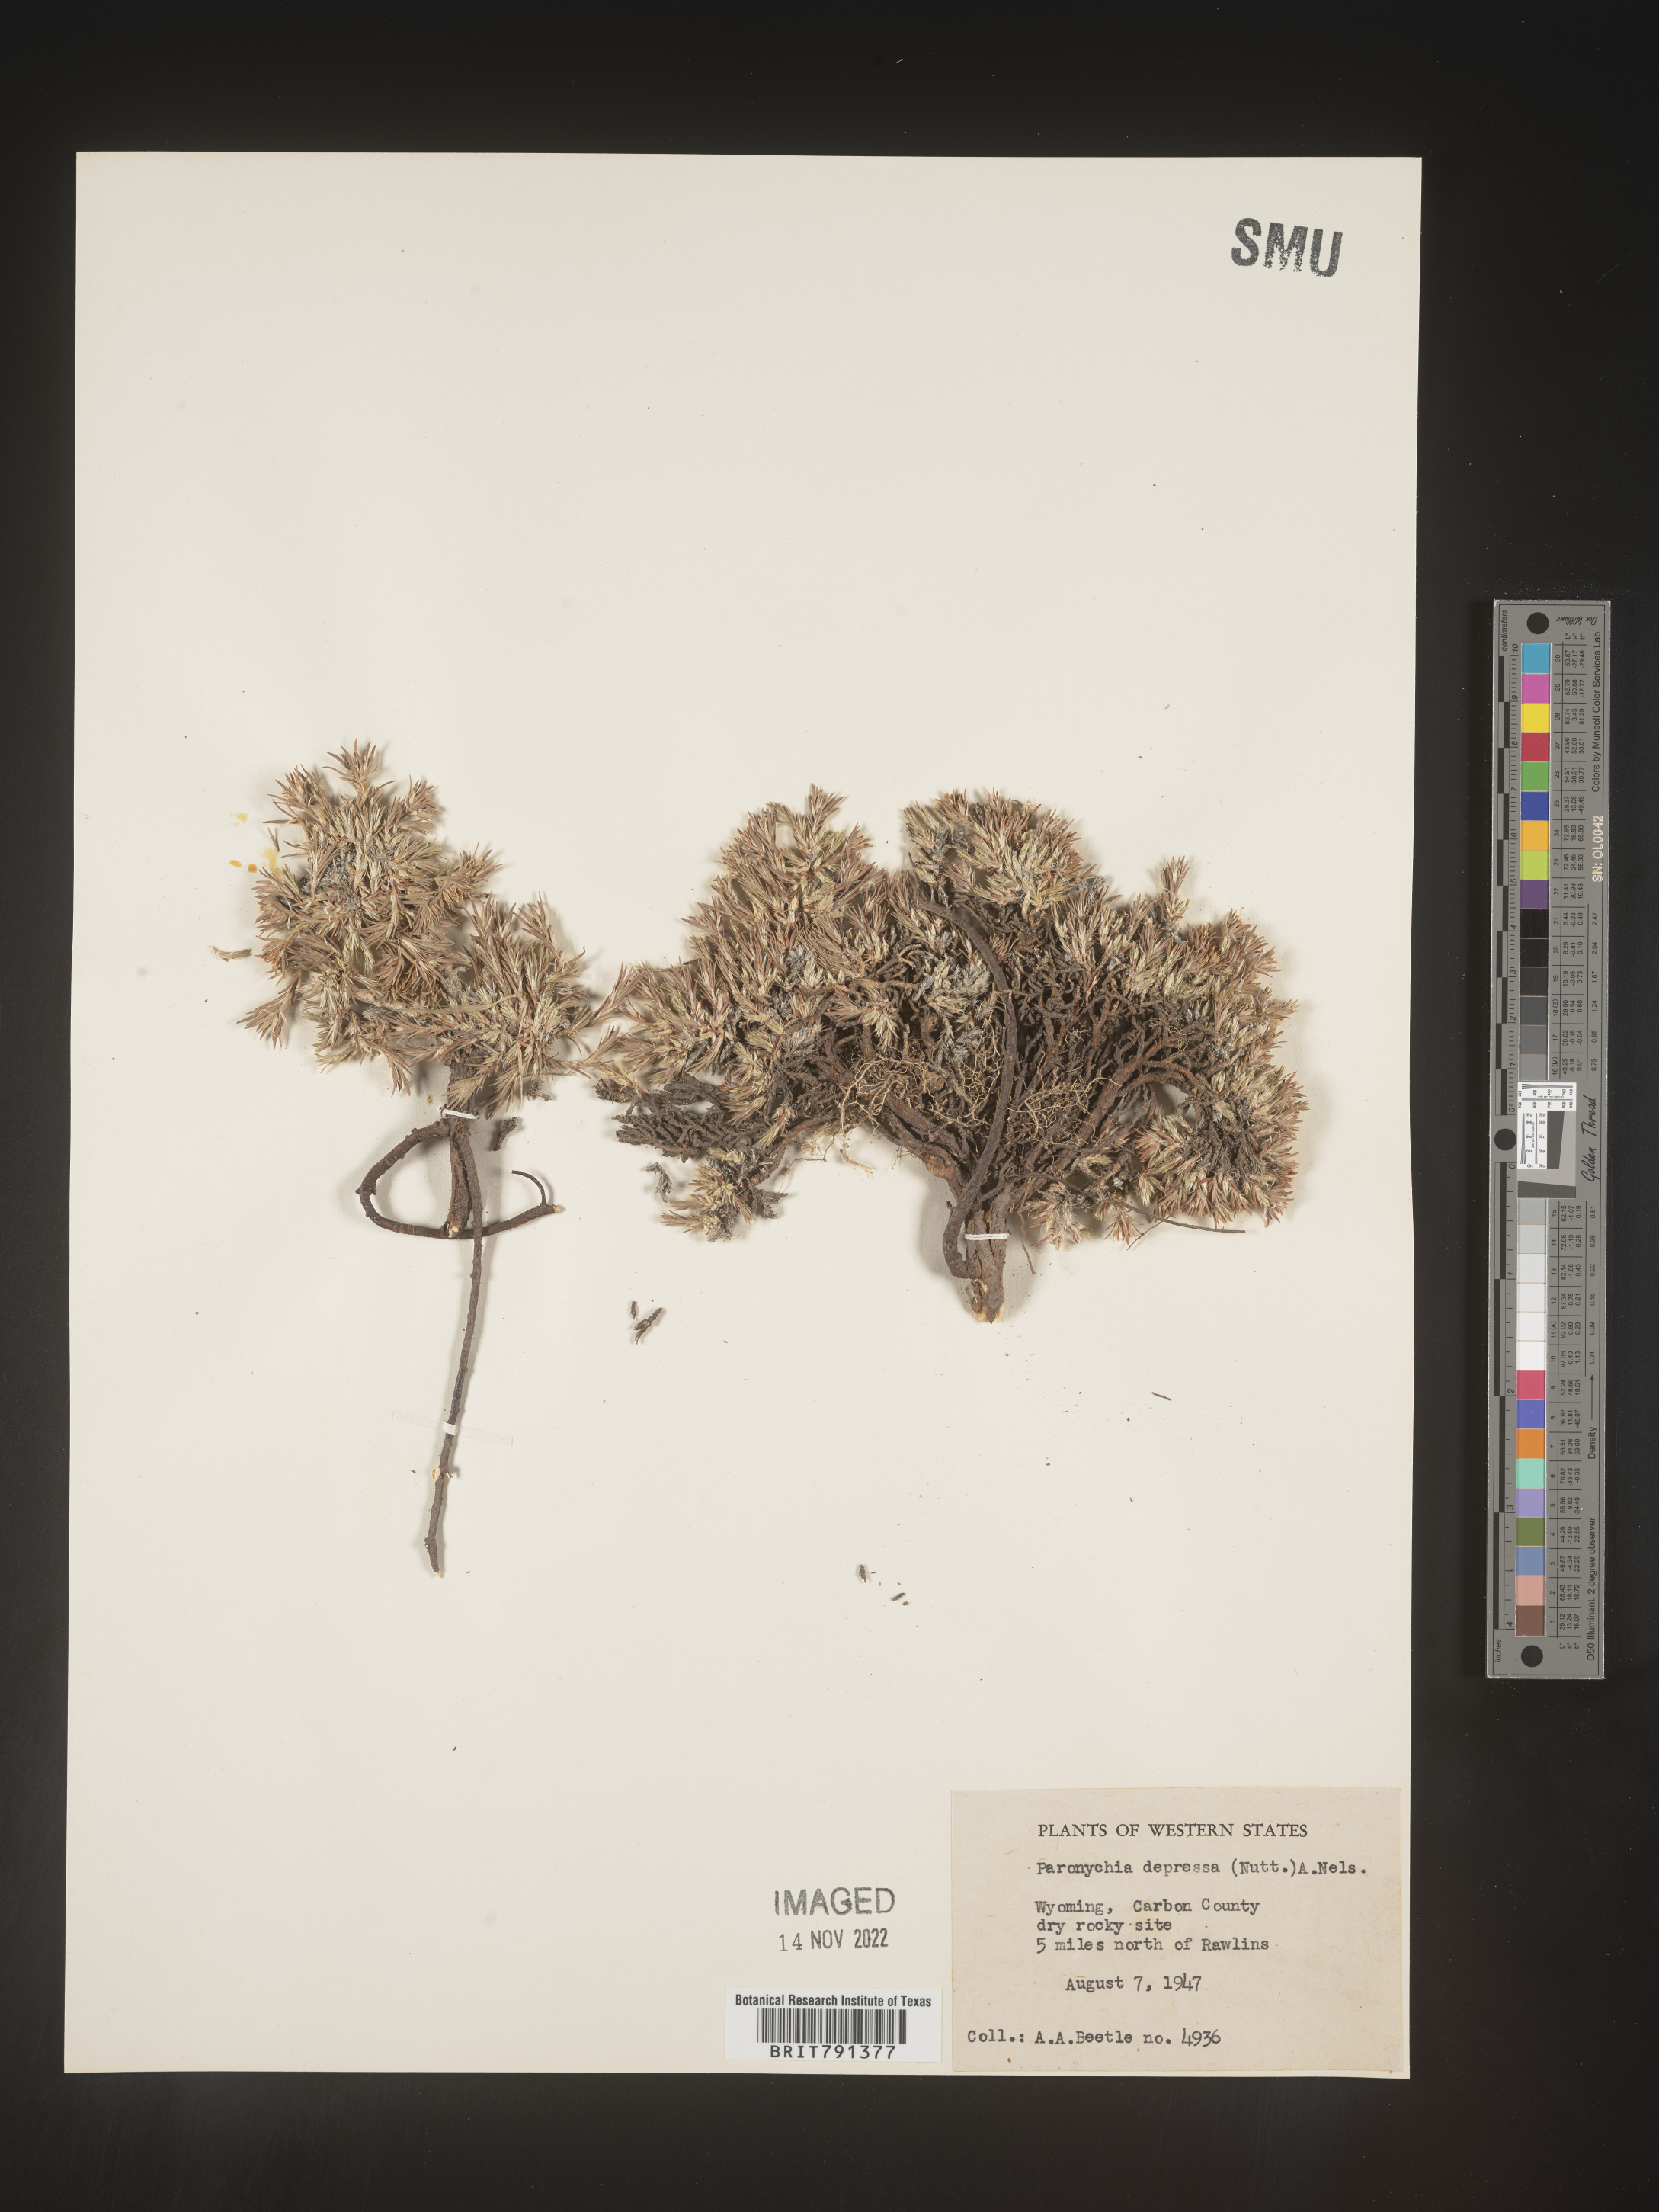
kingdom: Plantae
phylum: Tracheophyta
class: Magnoliopsida
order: Caryophyllales
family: Caryophyllaceae
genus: Paronychia
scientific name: Paronychia
